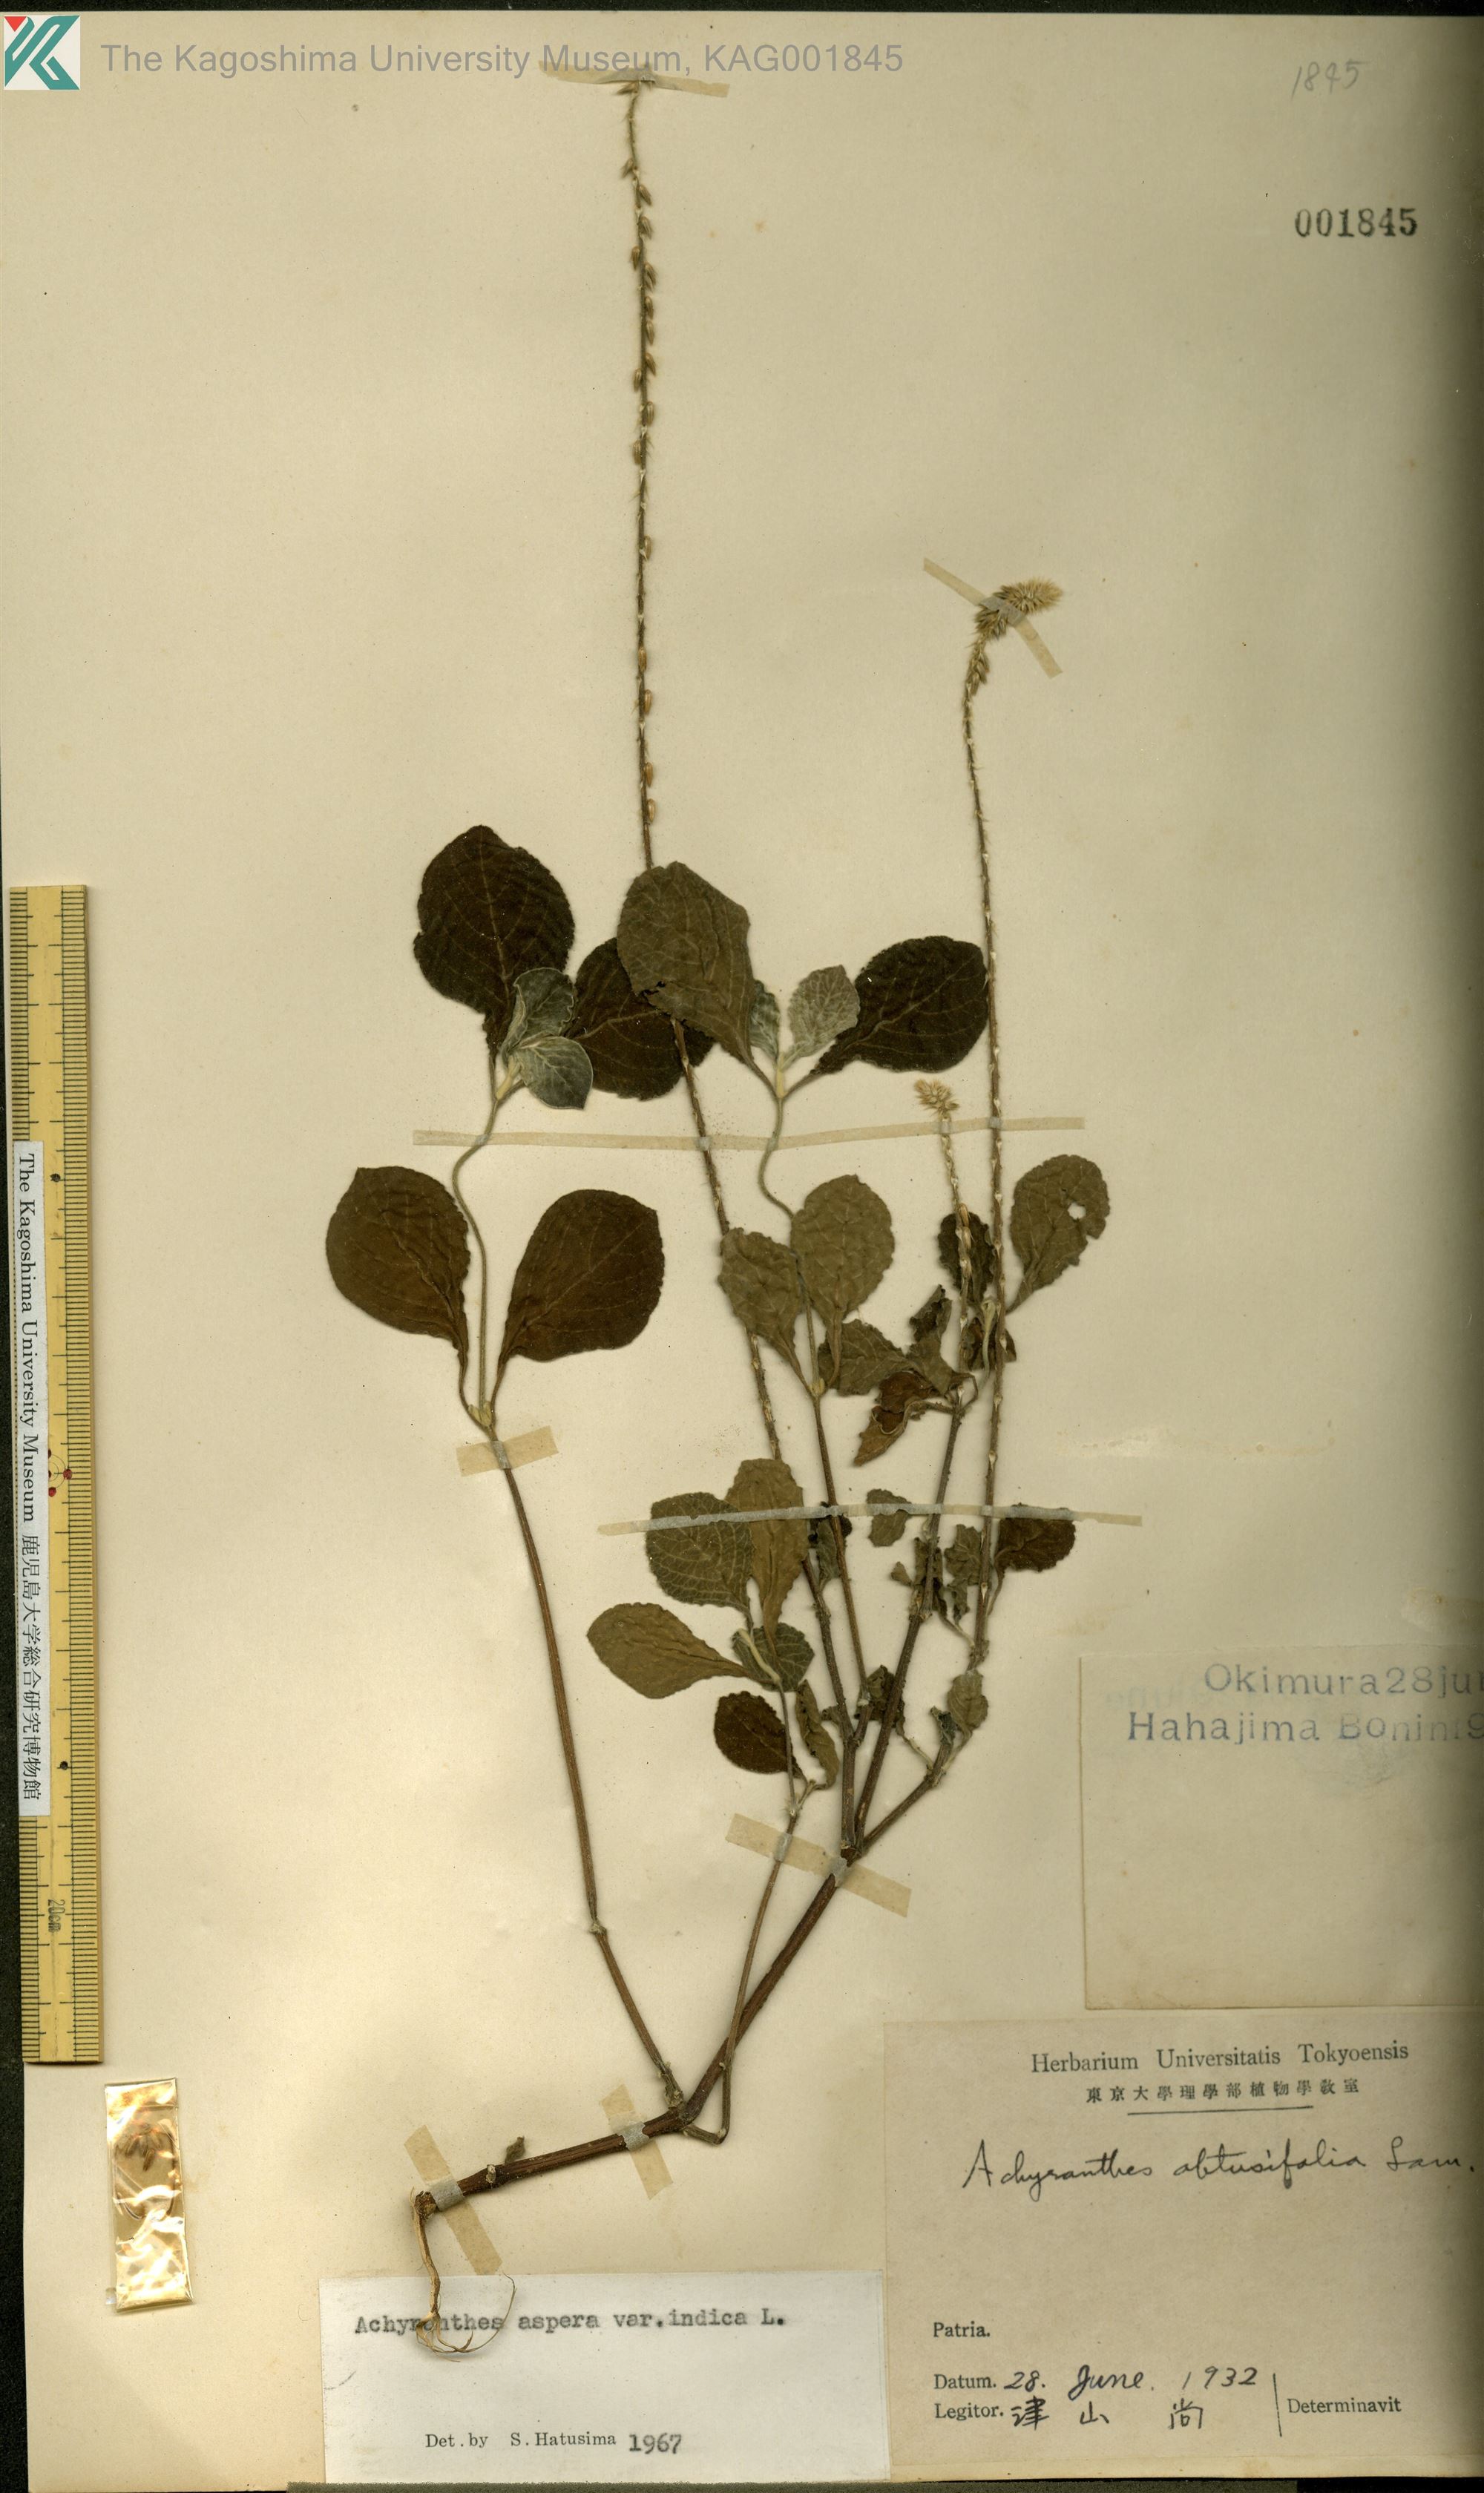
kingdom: Plantae
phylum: Tracheophyta
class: Magnoliopsida
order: Caryophyllales
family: Amaranthaceae
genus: Achyranthes
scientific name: Achyranthes aspera
